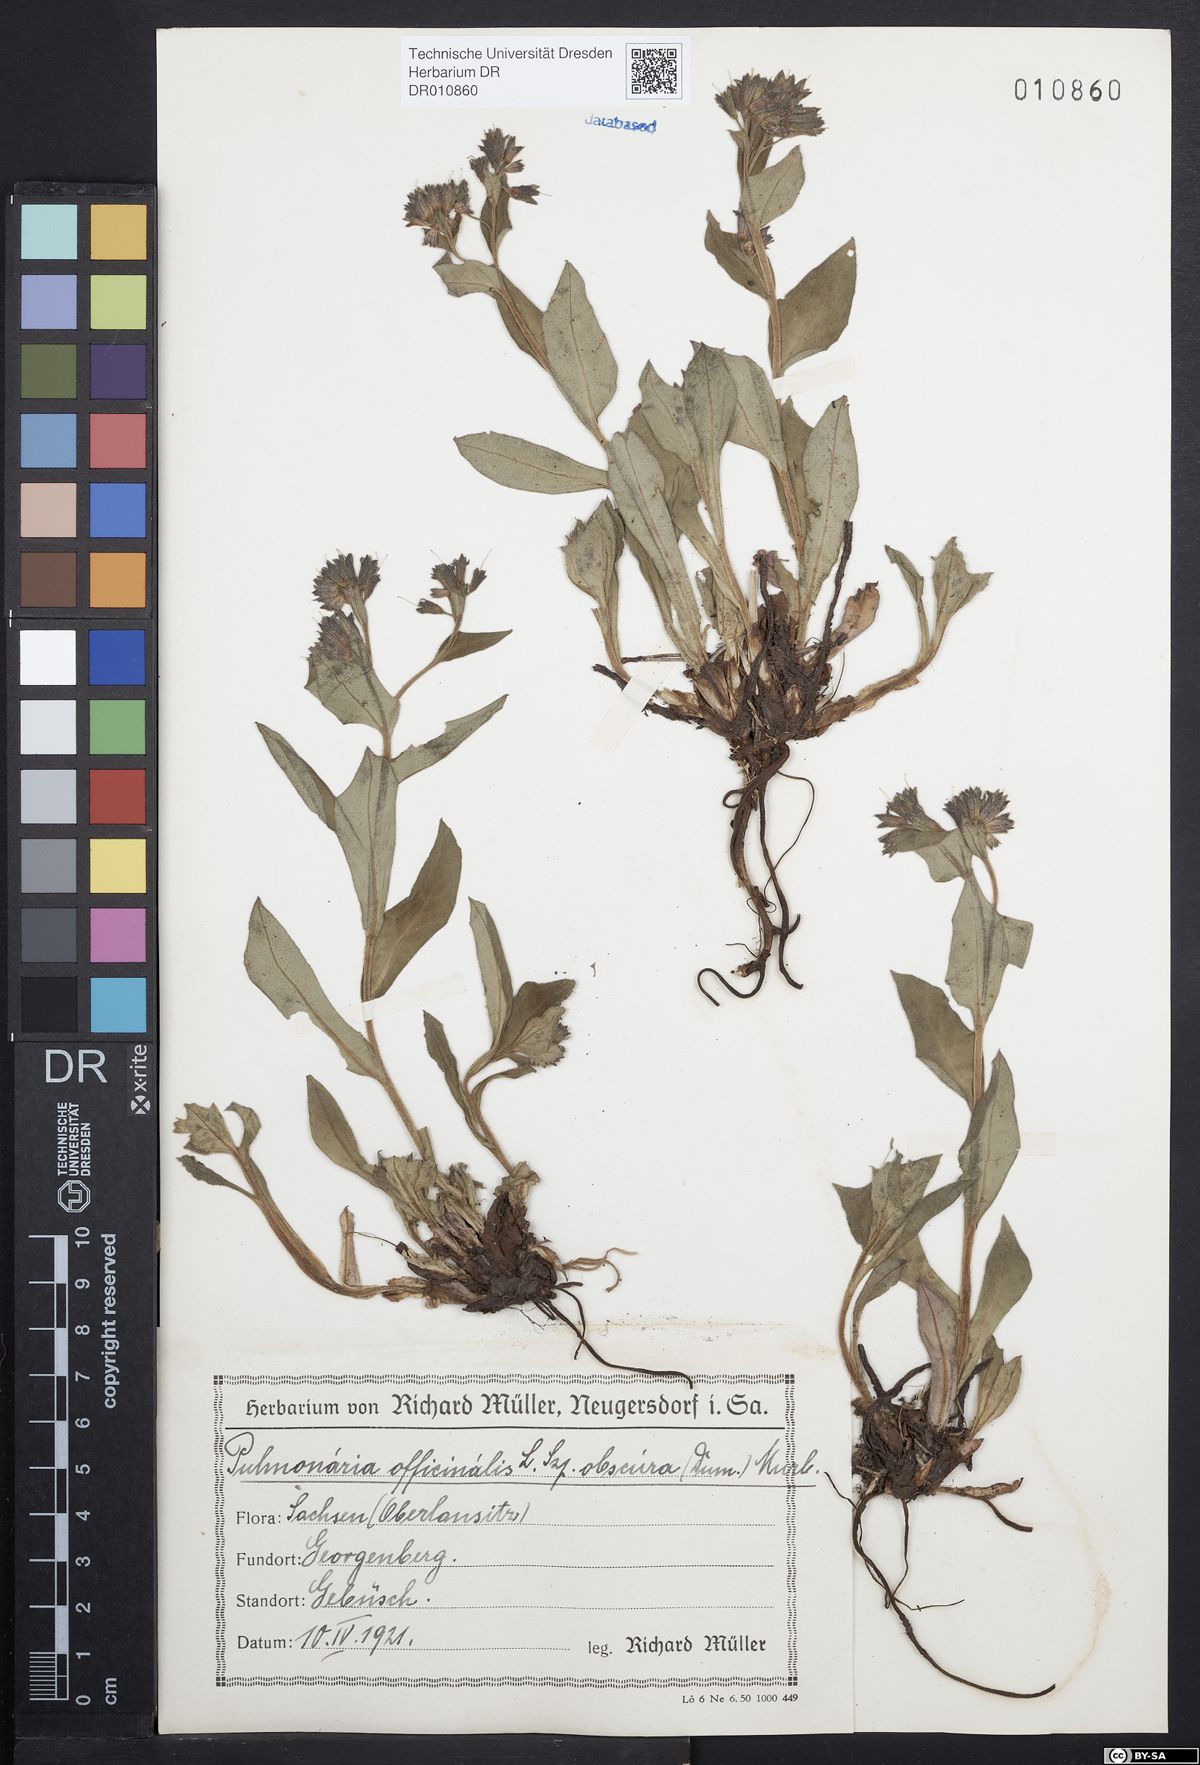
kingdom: Plantae
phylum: Tracheophyta
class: Magnoliopsida
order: Boraginales
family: Boraginaceae
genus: Pulmonaria
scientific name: Pulmonaria obscura
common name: Suffolk lungwort
